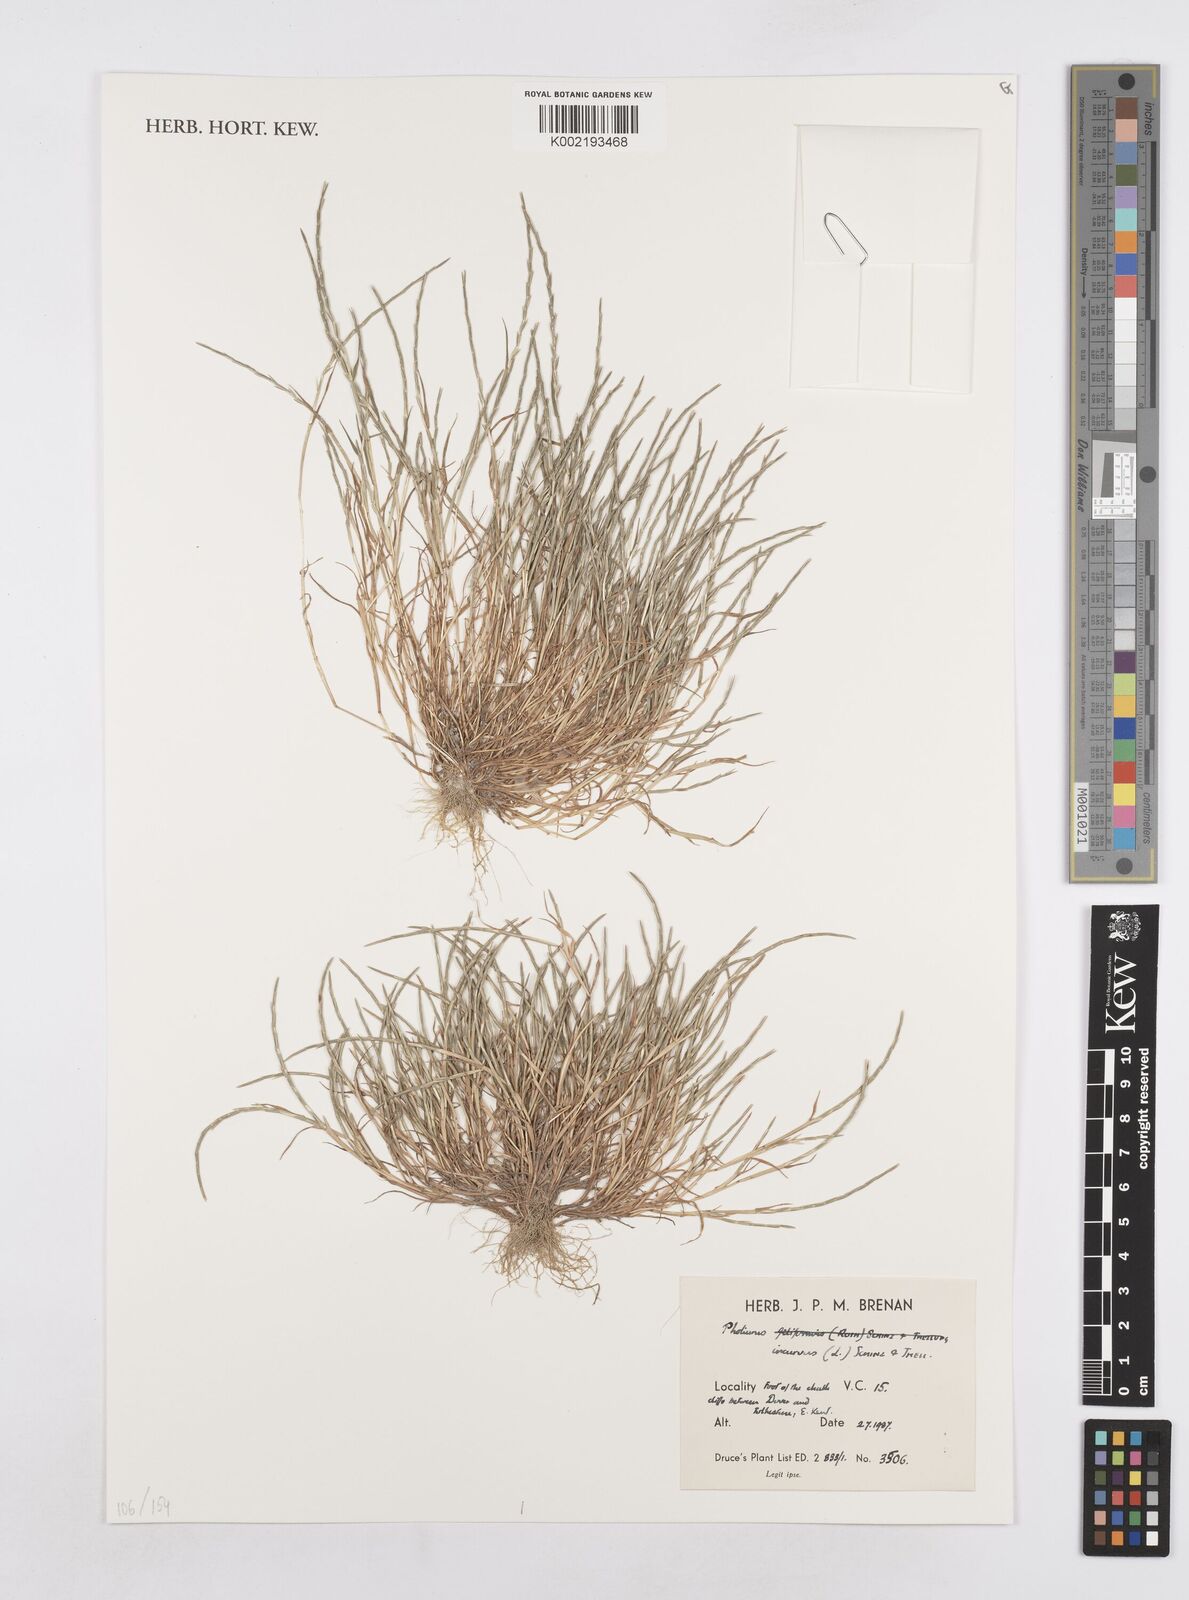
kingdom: Plantae
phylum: Tracheophyta
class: Liliopsida
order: Poales
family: Poaceae
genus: Parapholis
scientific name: Parapholis incurva
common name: Curved sicklegrass
